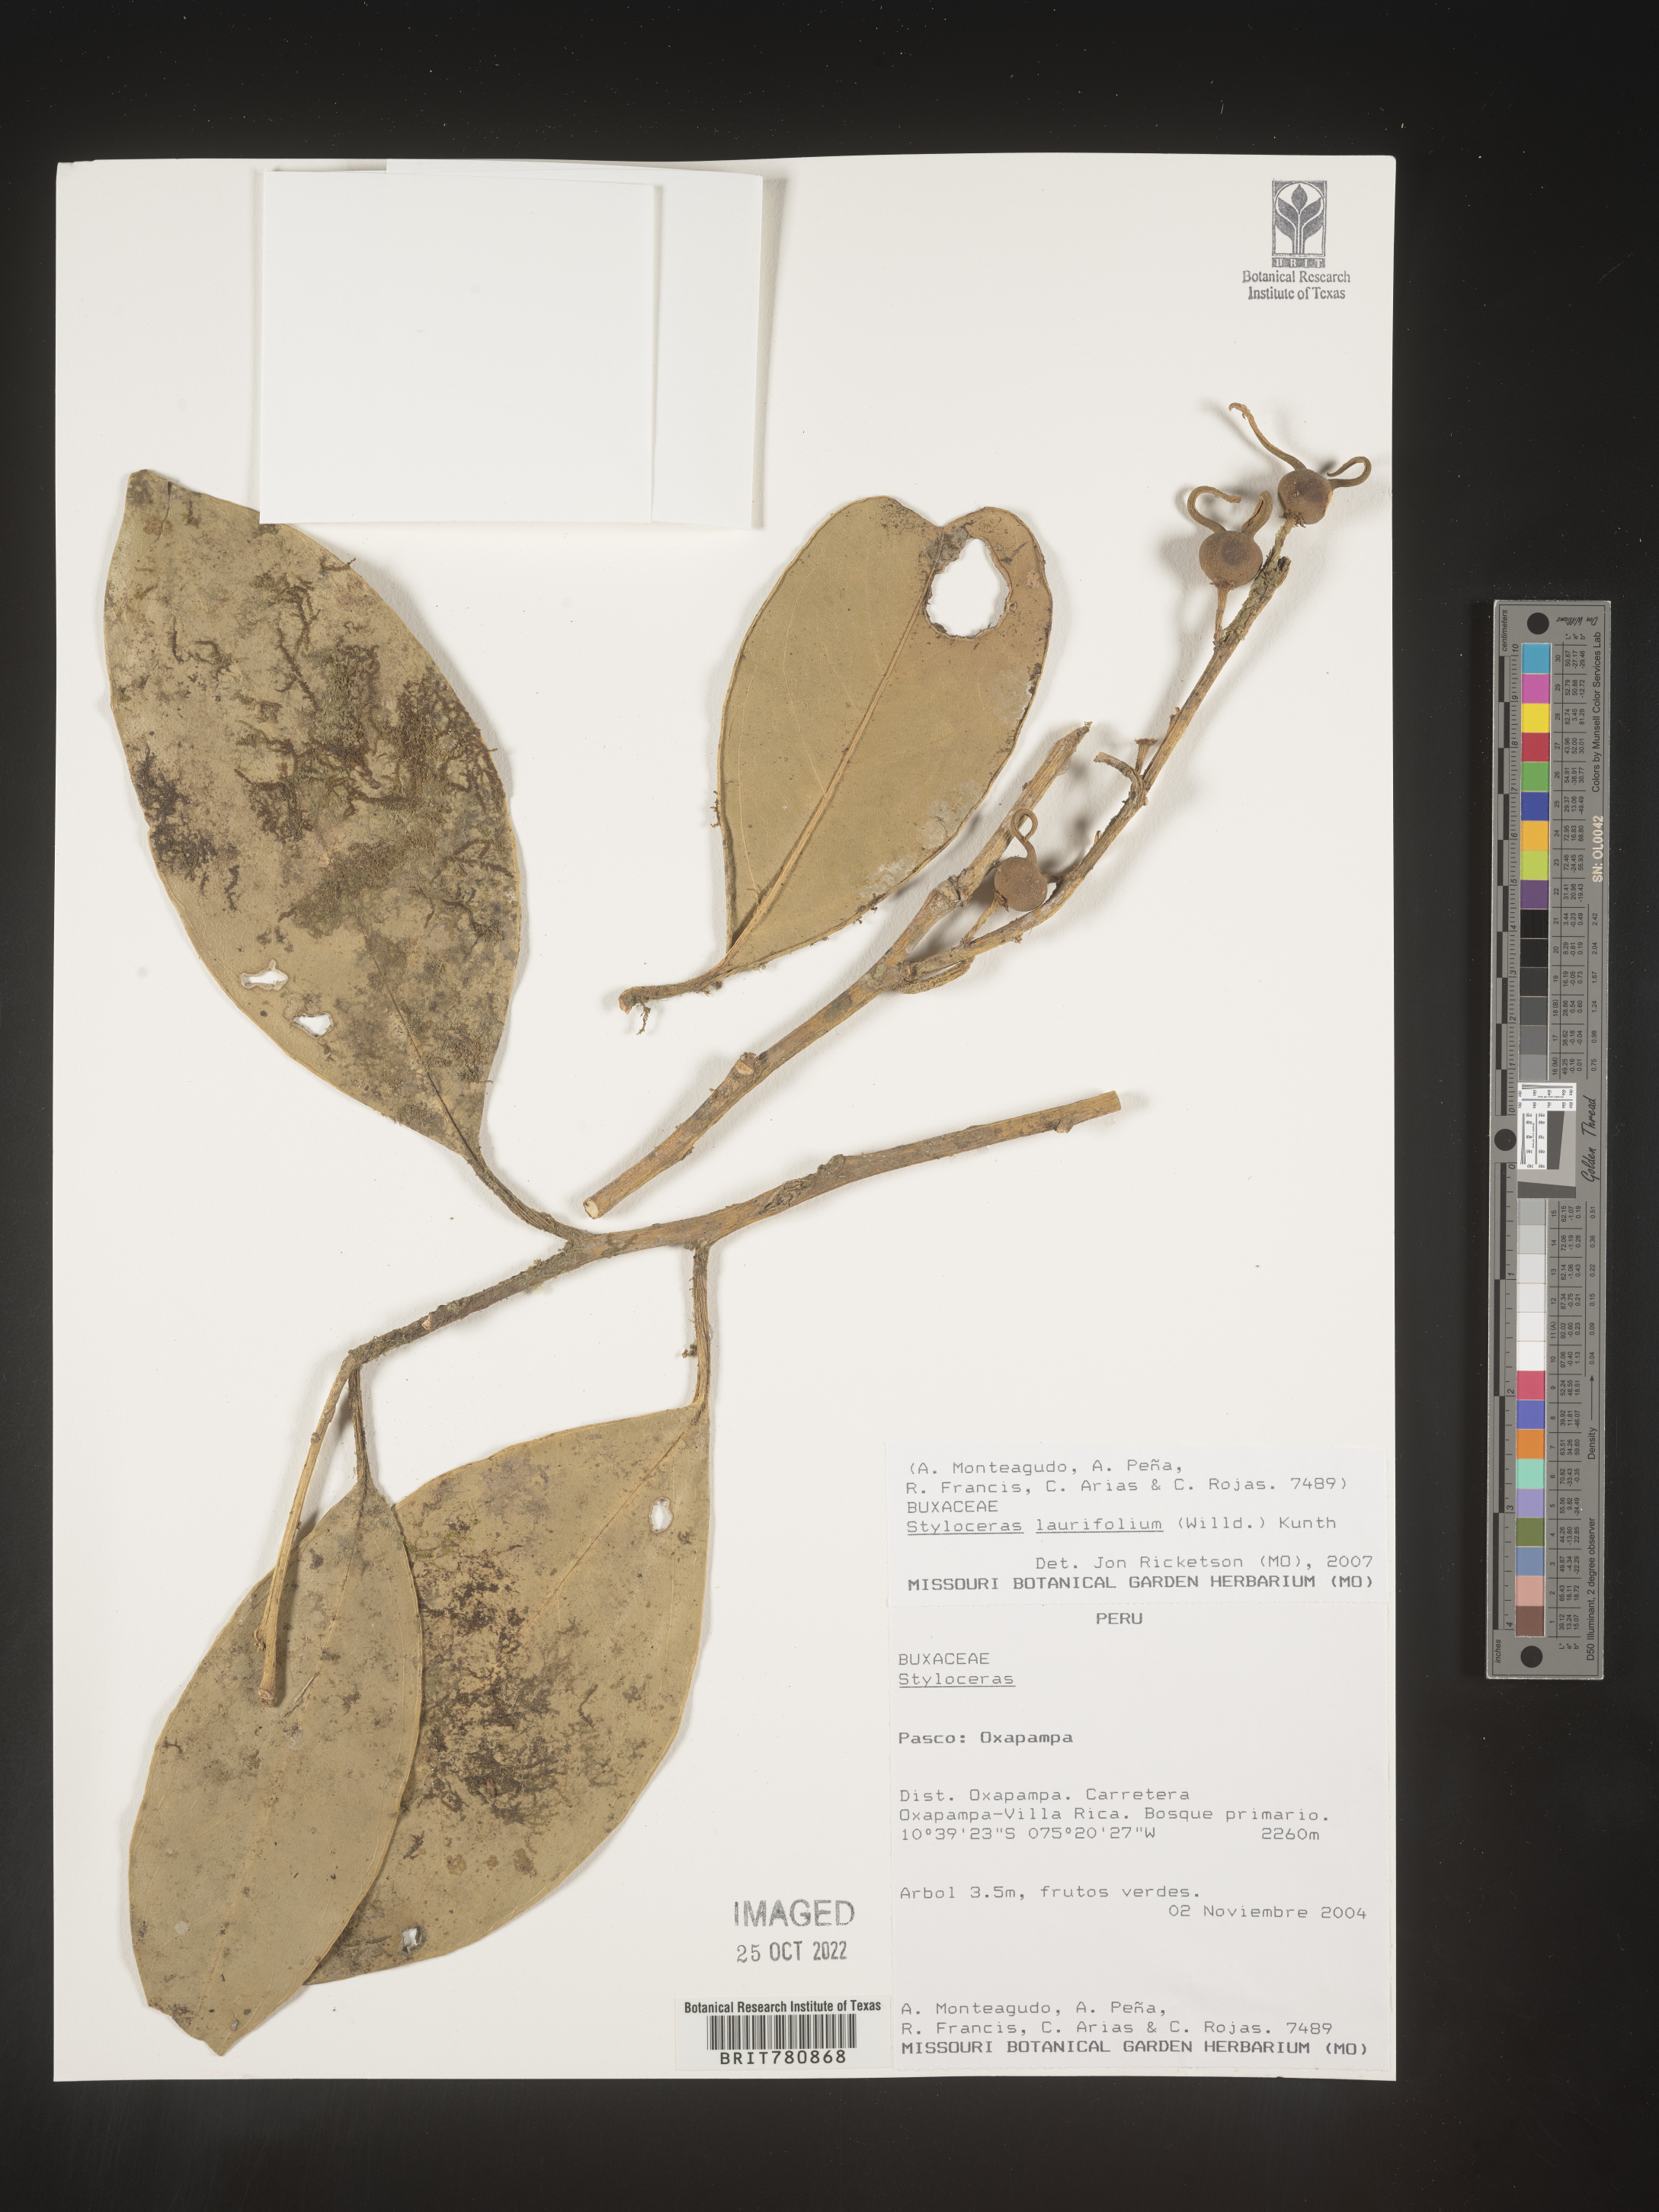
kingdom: Plantae
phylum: Tracheophyta
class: Magnoliopsida
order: Buxales
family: Buxaceae
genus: Styloceras
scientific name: Styloceras
